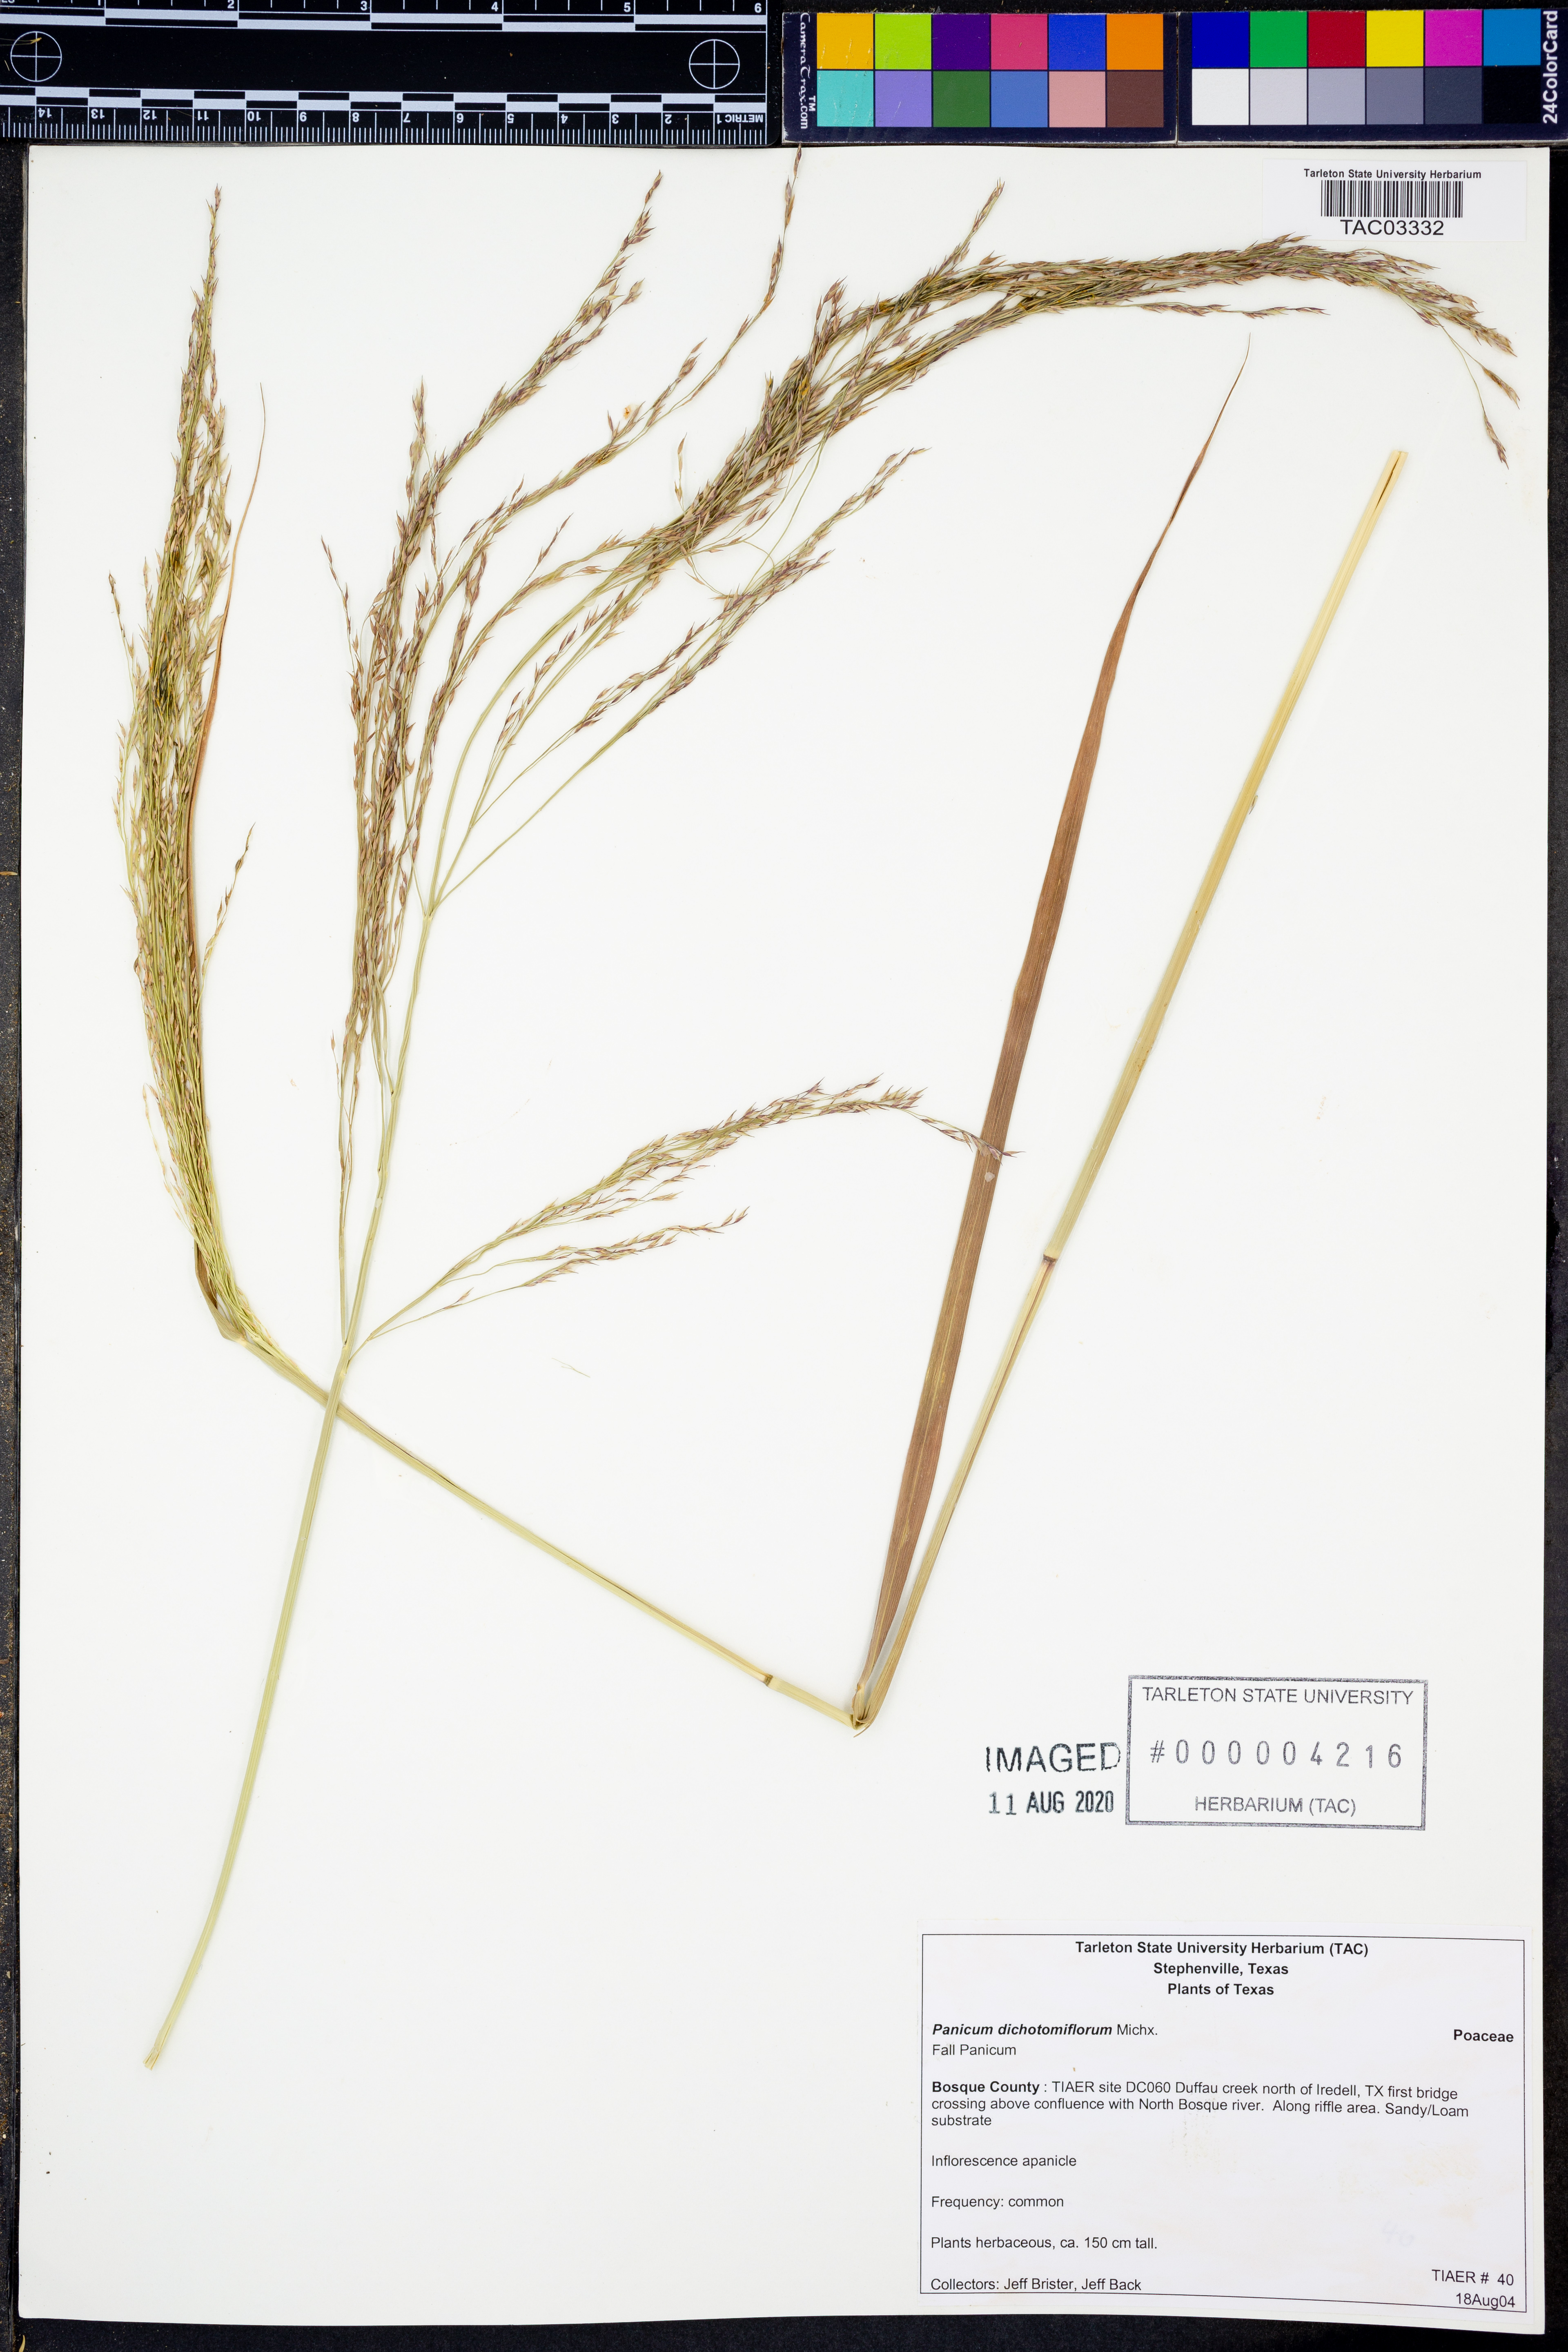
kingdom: Plantae
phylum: Tracheophyta
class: Liliopsida
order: Poales
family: Poaceae
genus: Panicum
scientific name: Panicum dichotomiflorum
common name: Autumn millet
